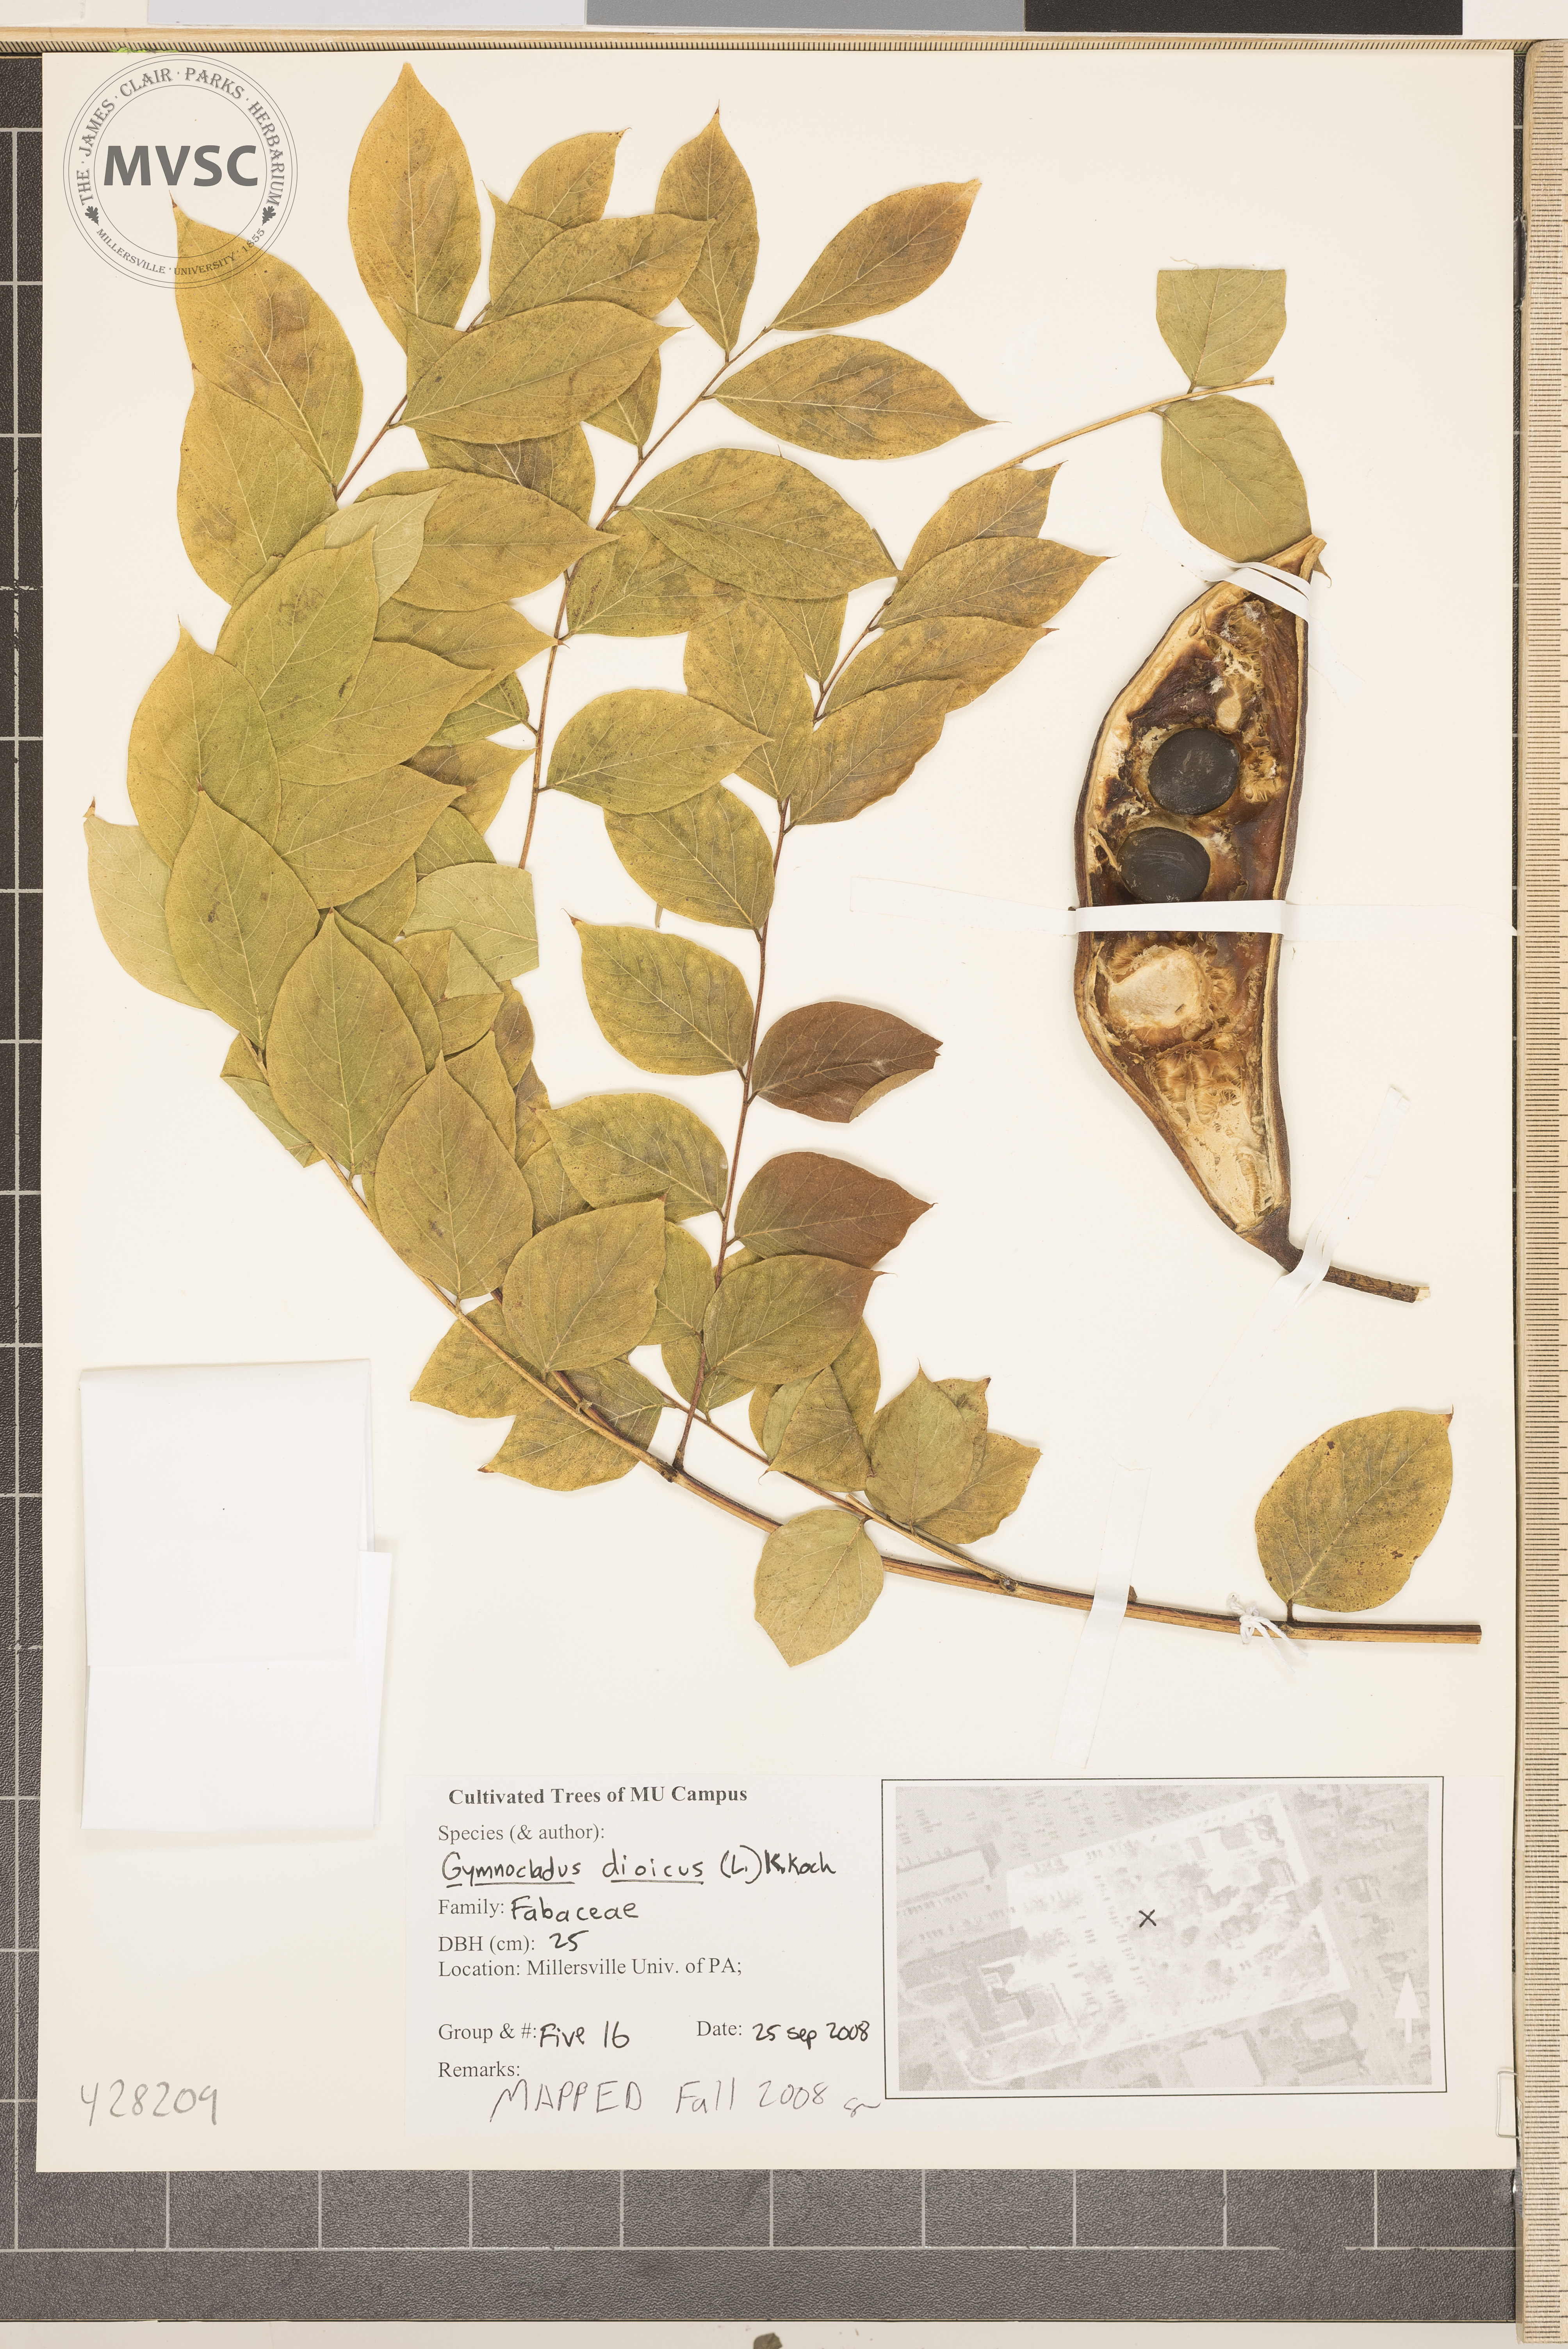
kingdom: Plantae
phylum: Tracheophyta
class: Magnoliopsida
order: Fabales
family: Fabaceae
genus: Gymnocladus
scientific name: Gymnocladus dioicus
